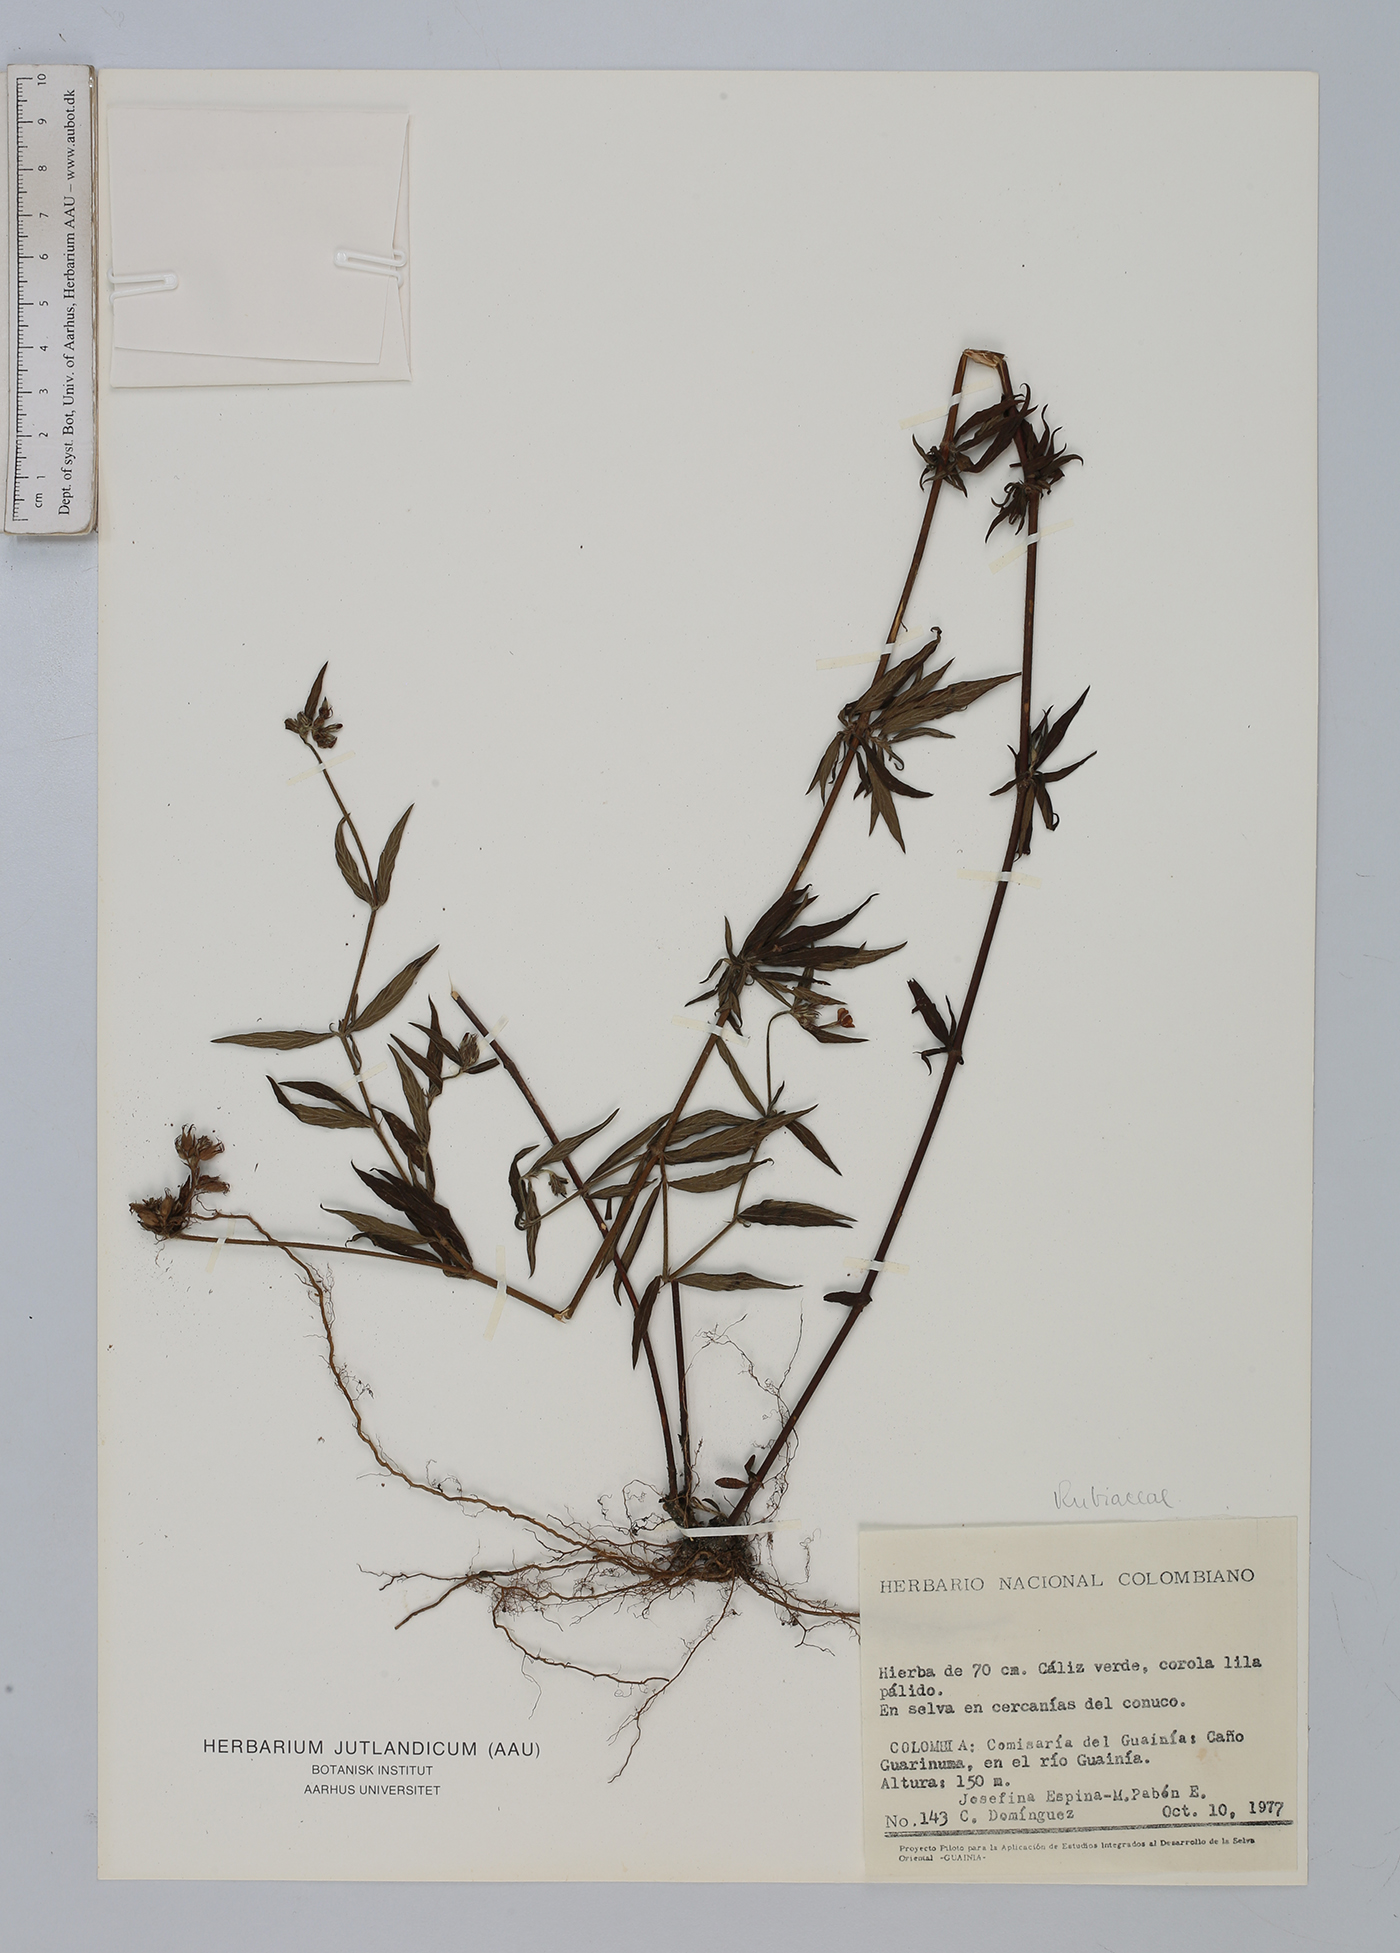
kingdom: Plantae
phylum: Tracheophyta
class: Magnoliopsida
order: Gentianales
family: Rubiaceae
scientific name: Rubiaceae
